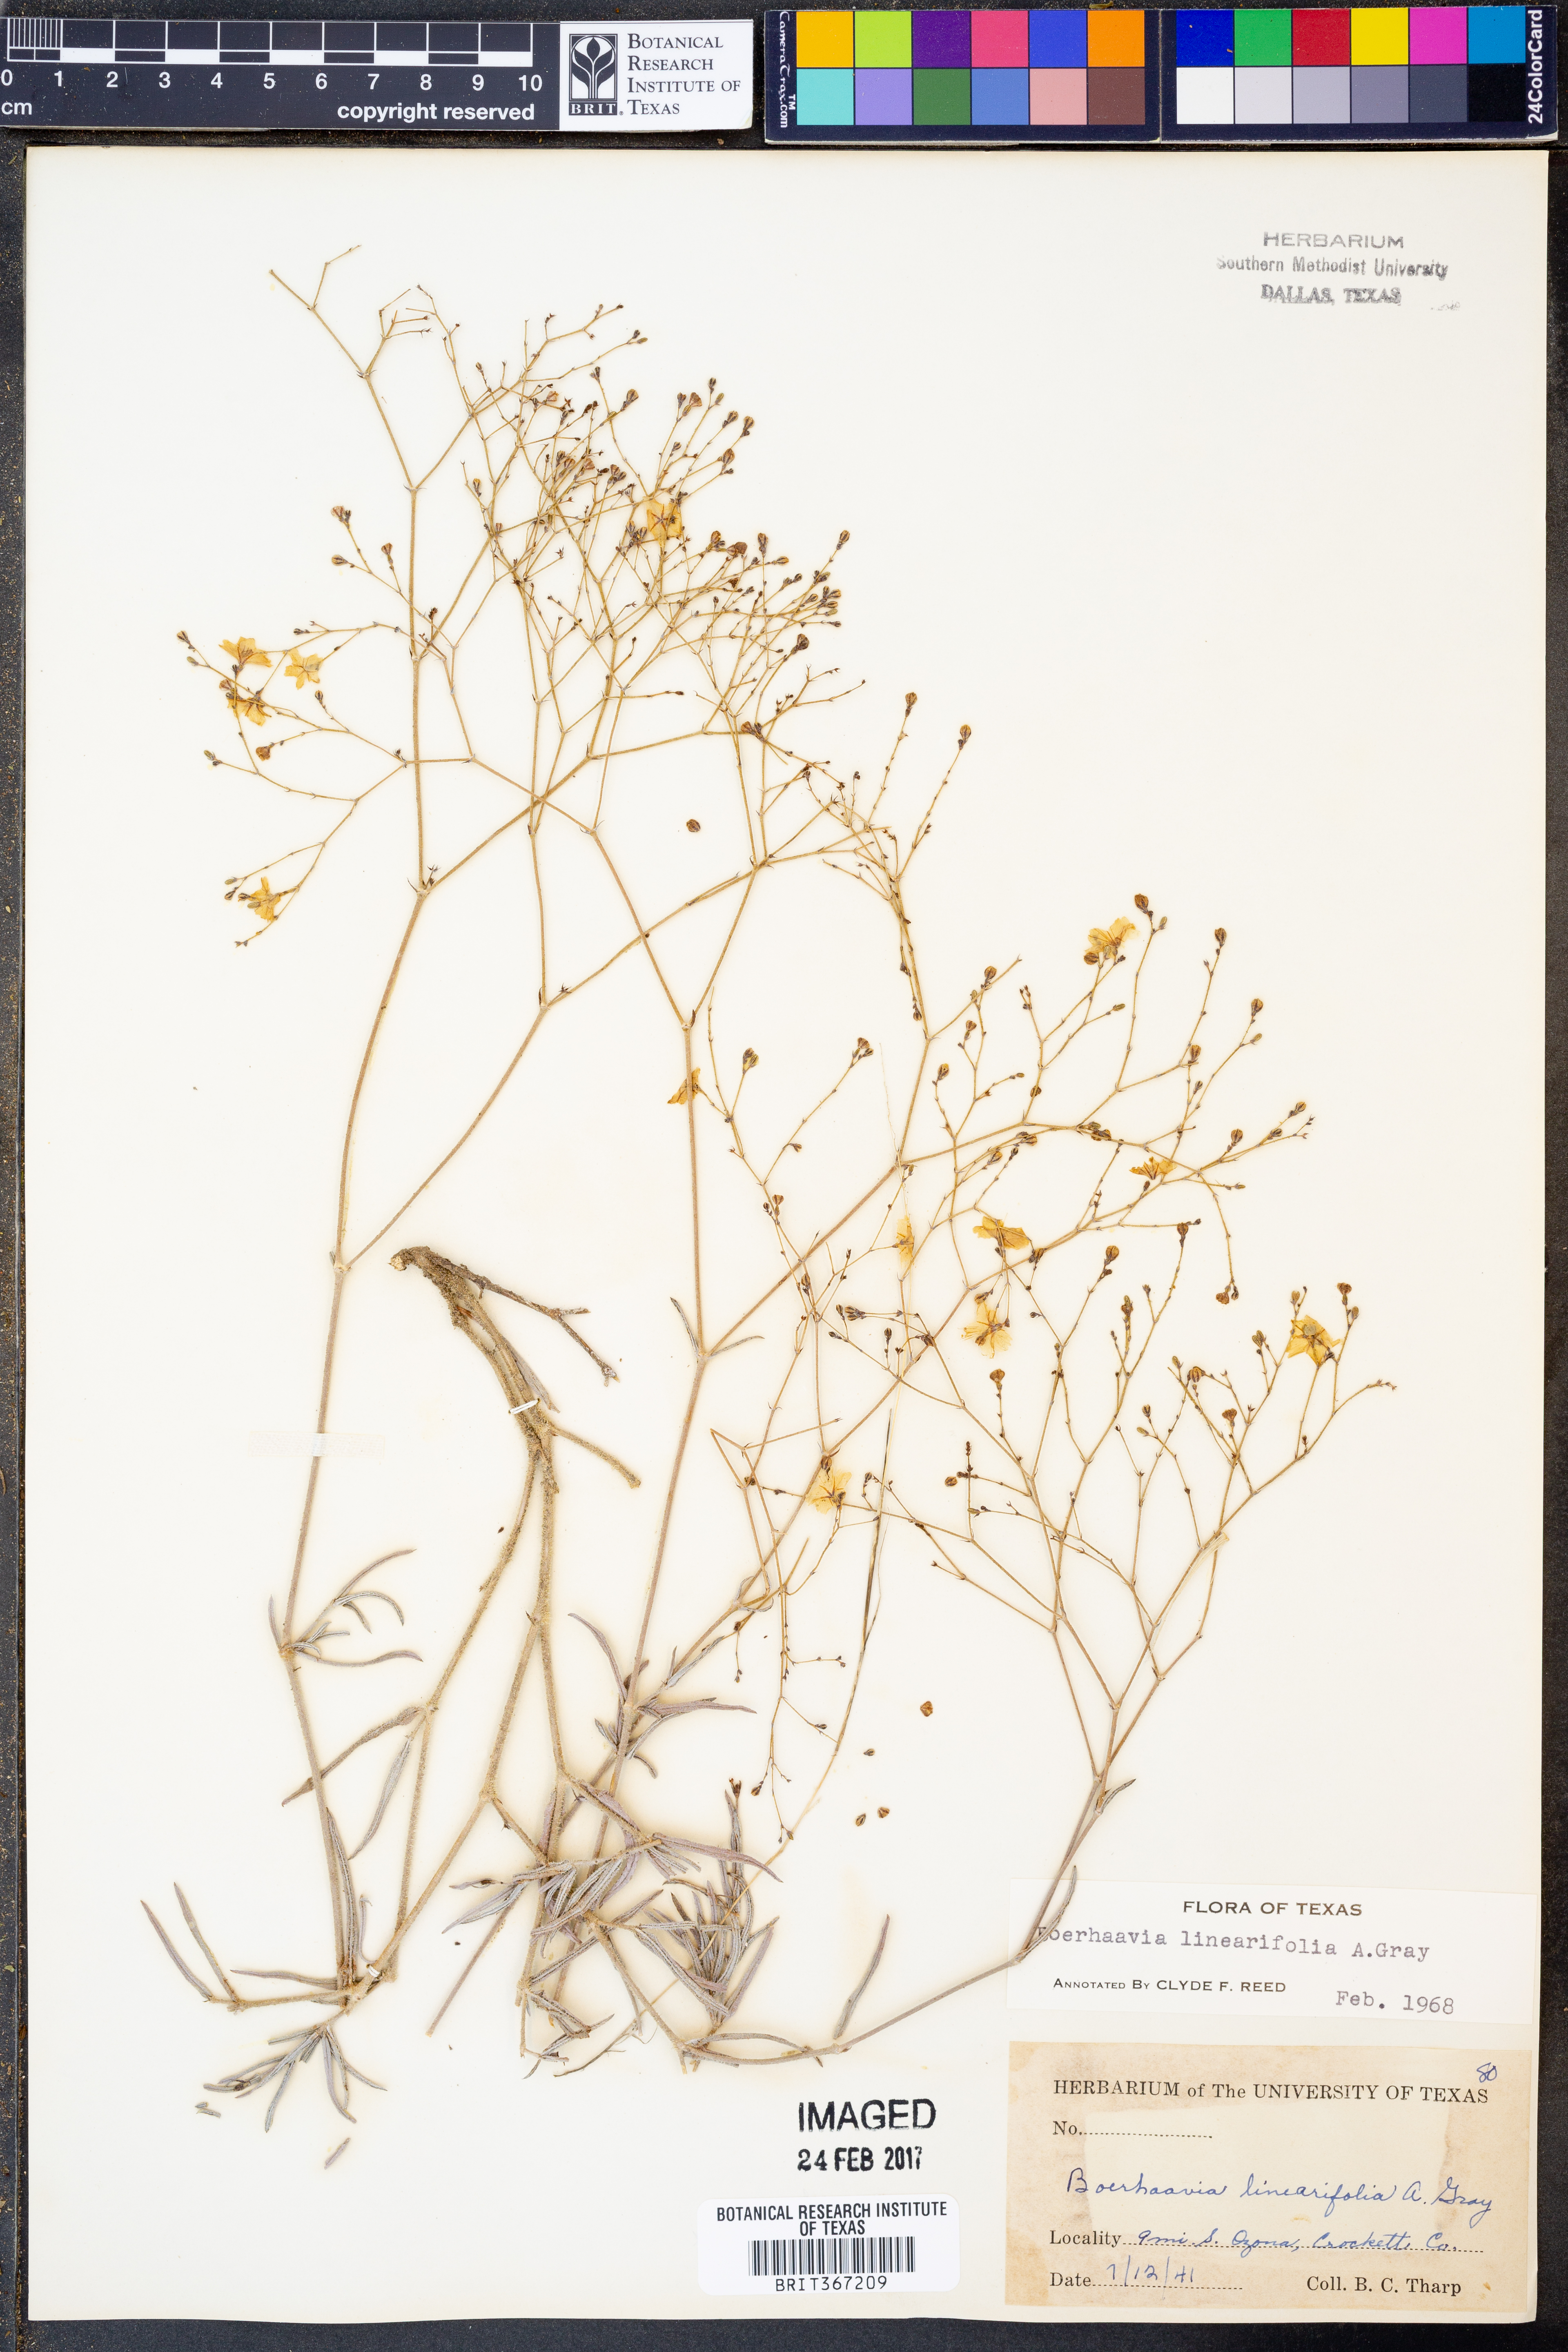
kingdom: Plantae
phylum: Tracheophyta
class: Magnoliopsida
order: Caryophyllales
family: Nyctaginaceae
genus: Boerhavia
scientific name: Boerhavia linearifolia
